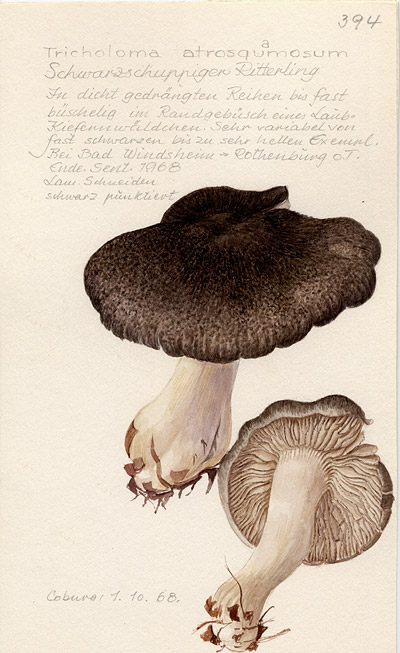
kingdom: Fungi
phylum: Basidiomycota
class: Agaricomycetes
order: Agaricales
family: Tricholomataceae
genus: Tricholoma
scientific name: Tricholoma atrosquamosum
